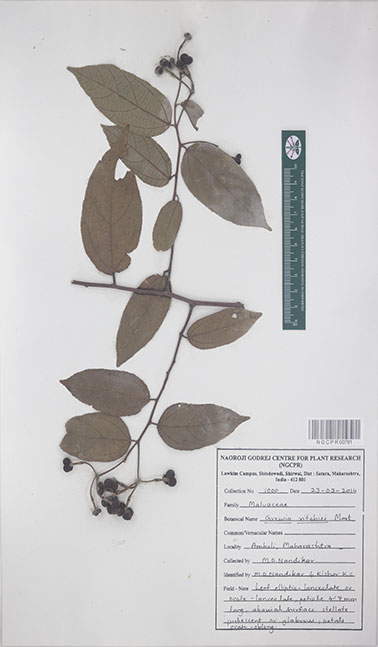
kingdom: Plantae
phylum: Tracheophyta
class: Magnoliopsida
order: Malvales
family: Malvaceae
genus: Grewia
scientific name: Grewia ritchiei
